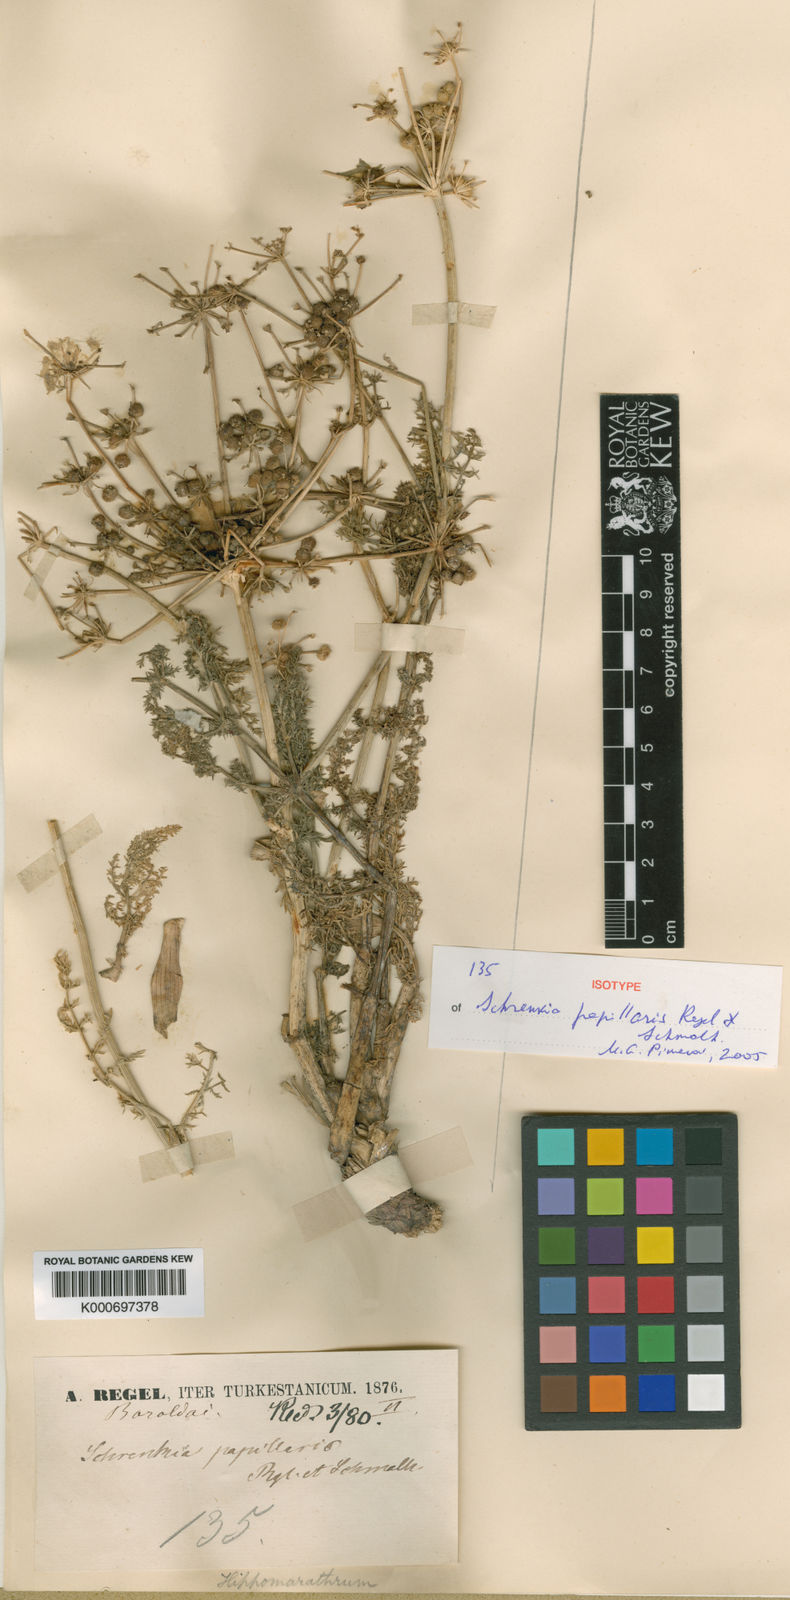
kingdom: Plantae
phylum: Tracheophyta
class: Magnoliopsida
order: Apiales
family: Apiaceae
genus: Schrenkia
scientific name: Schrenkia papillaris
